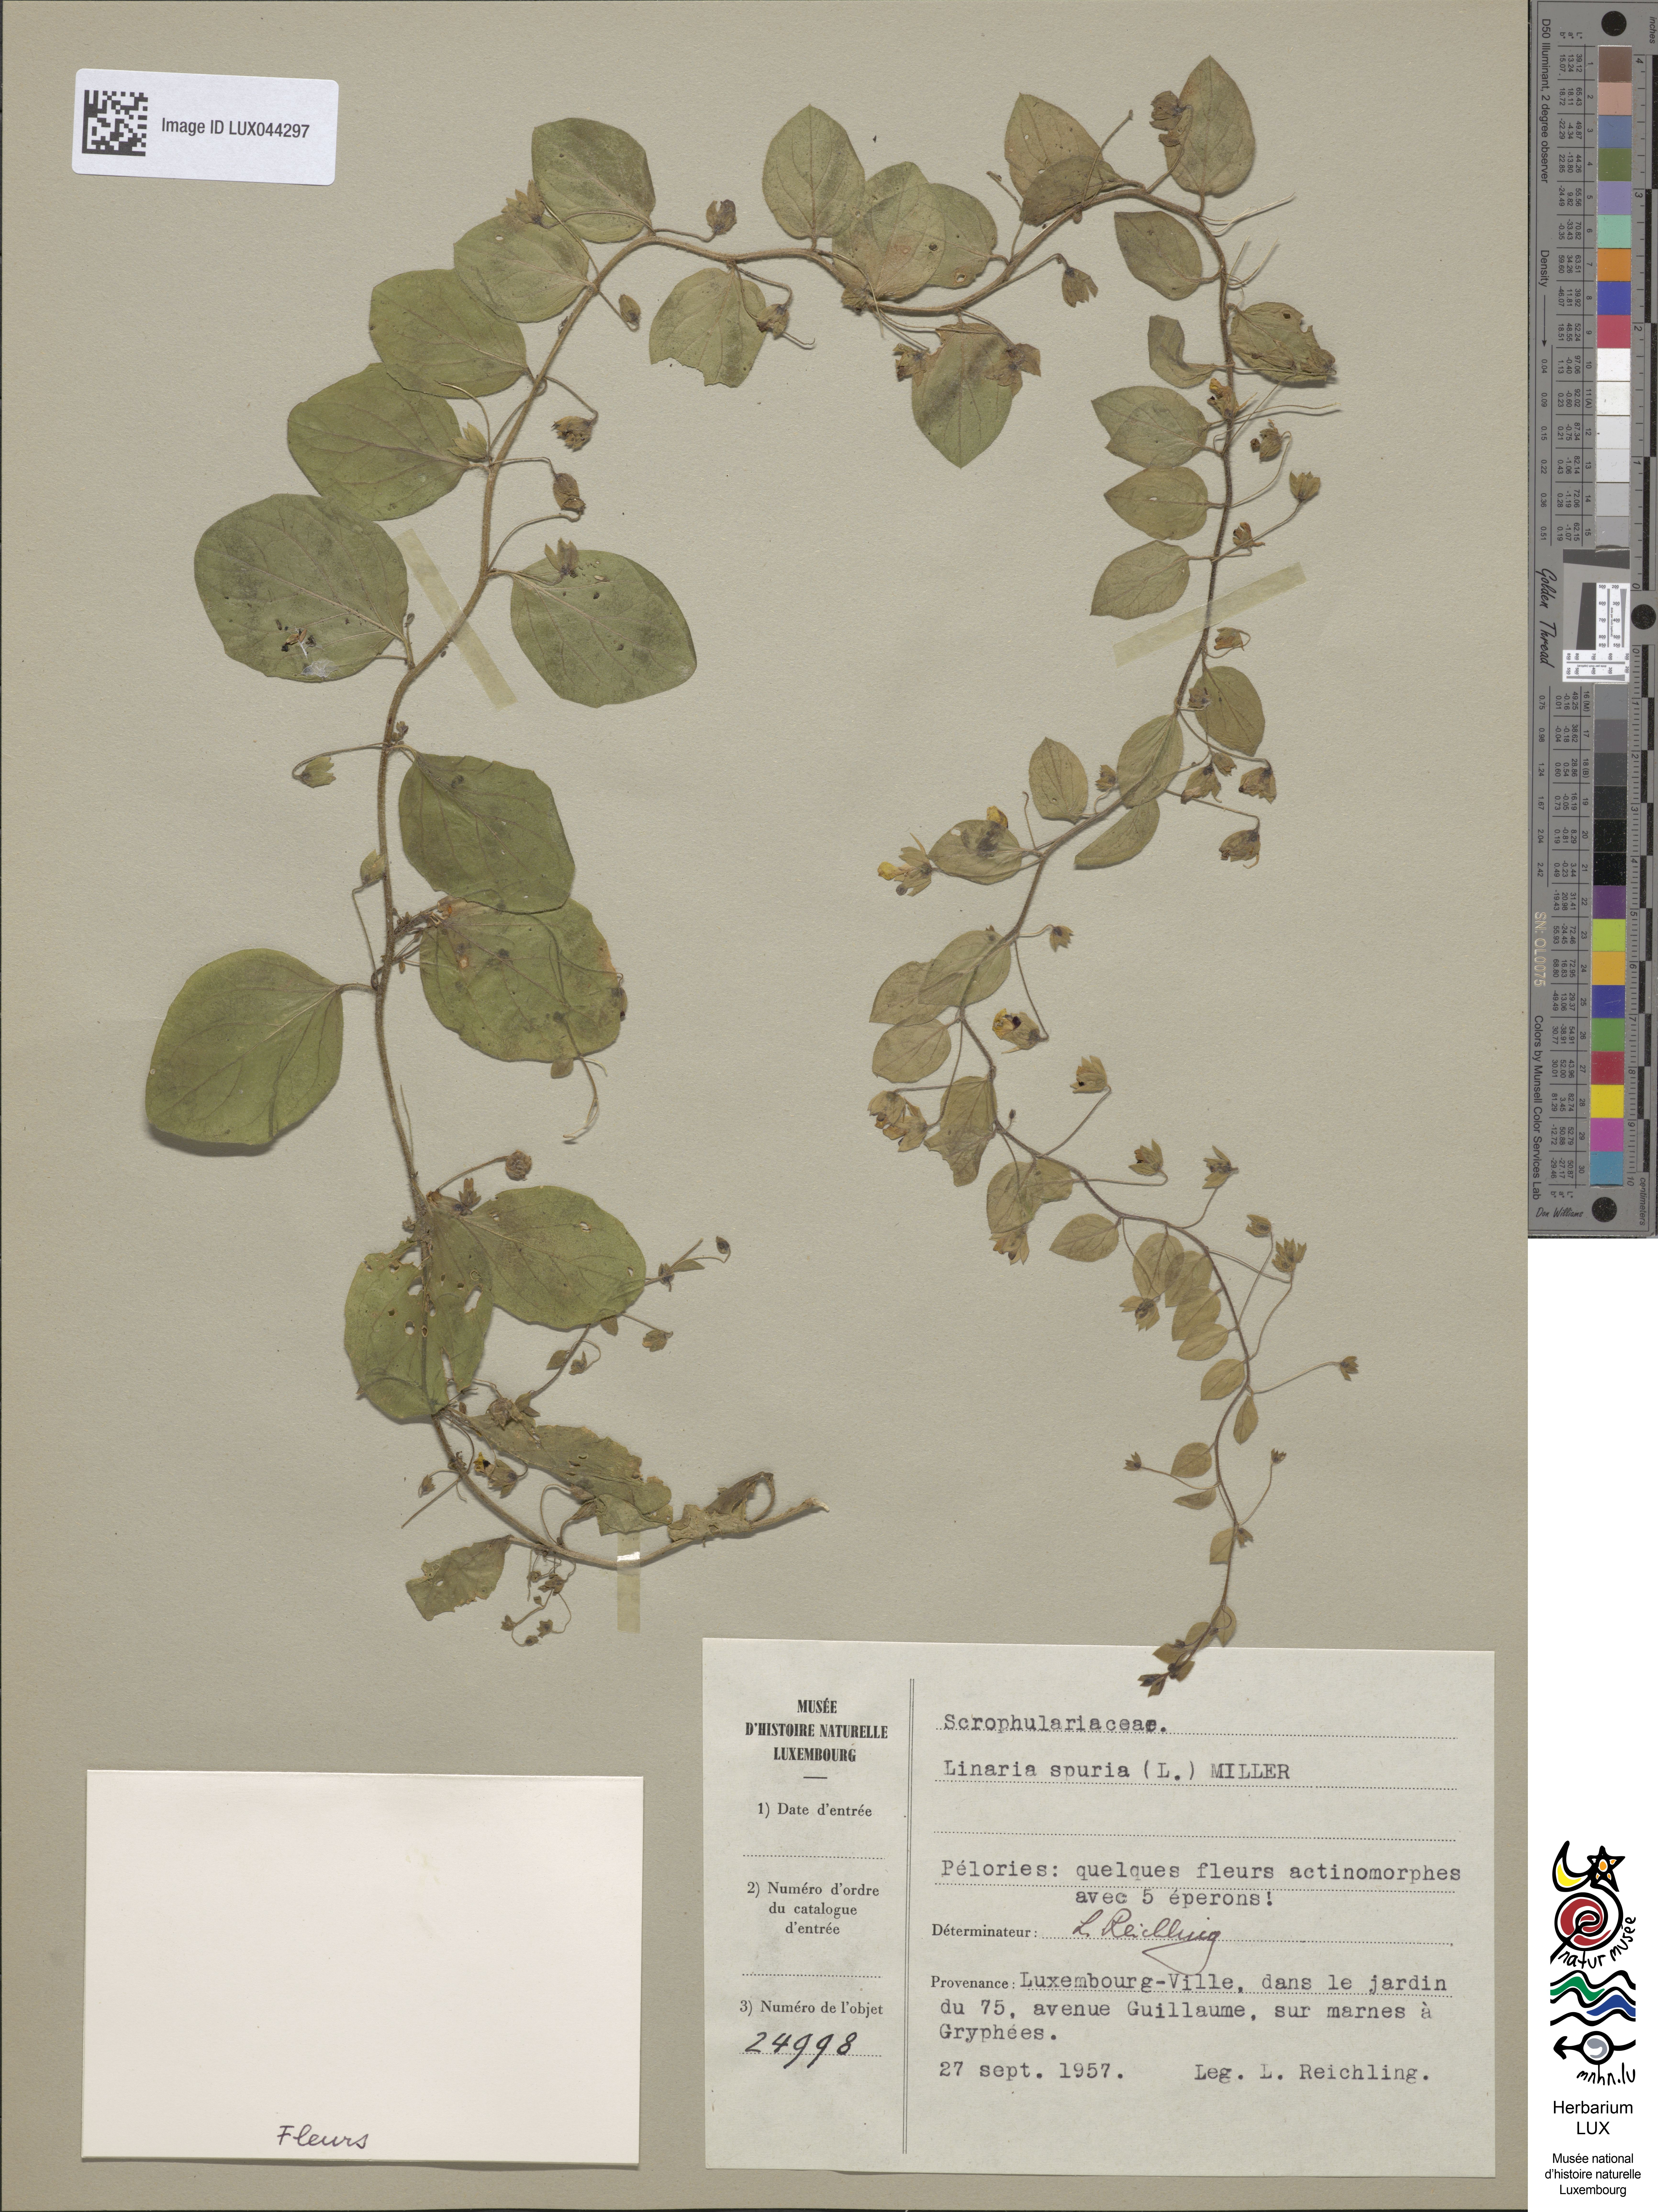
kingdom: Plantae
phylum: Tracheophyta
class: Magnoliopsida
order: Lamiales
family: Plantaginaceae
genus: Kickxia
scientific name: Kickxia spuria
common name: Round-leaved fluellen
